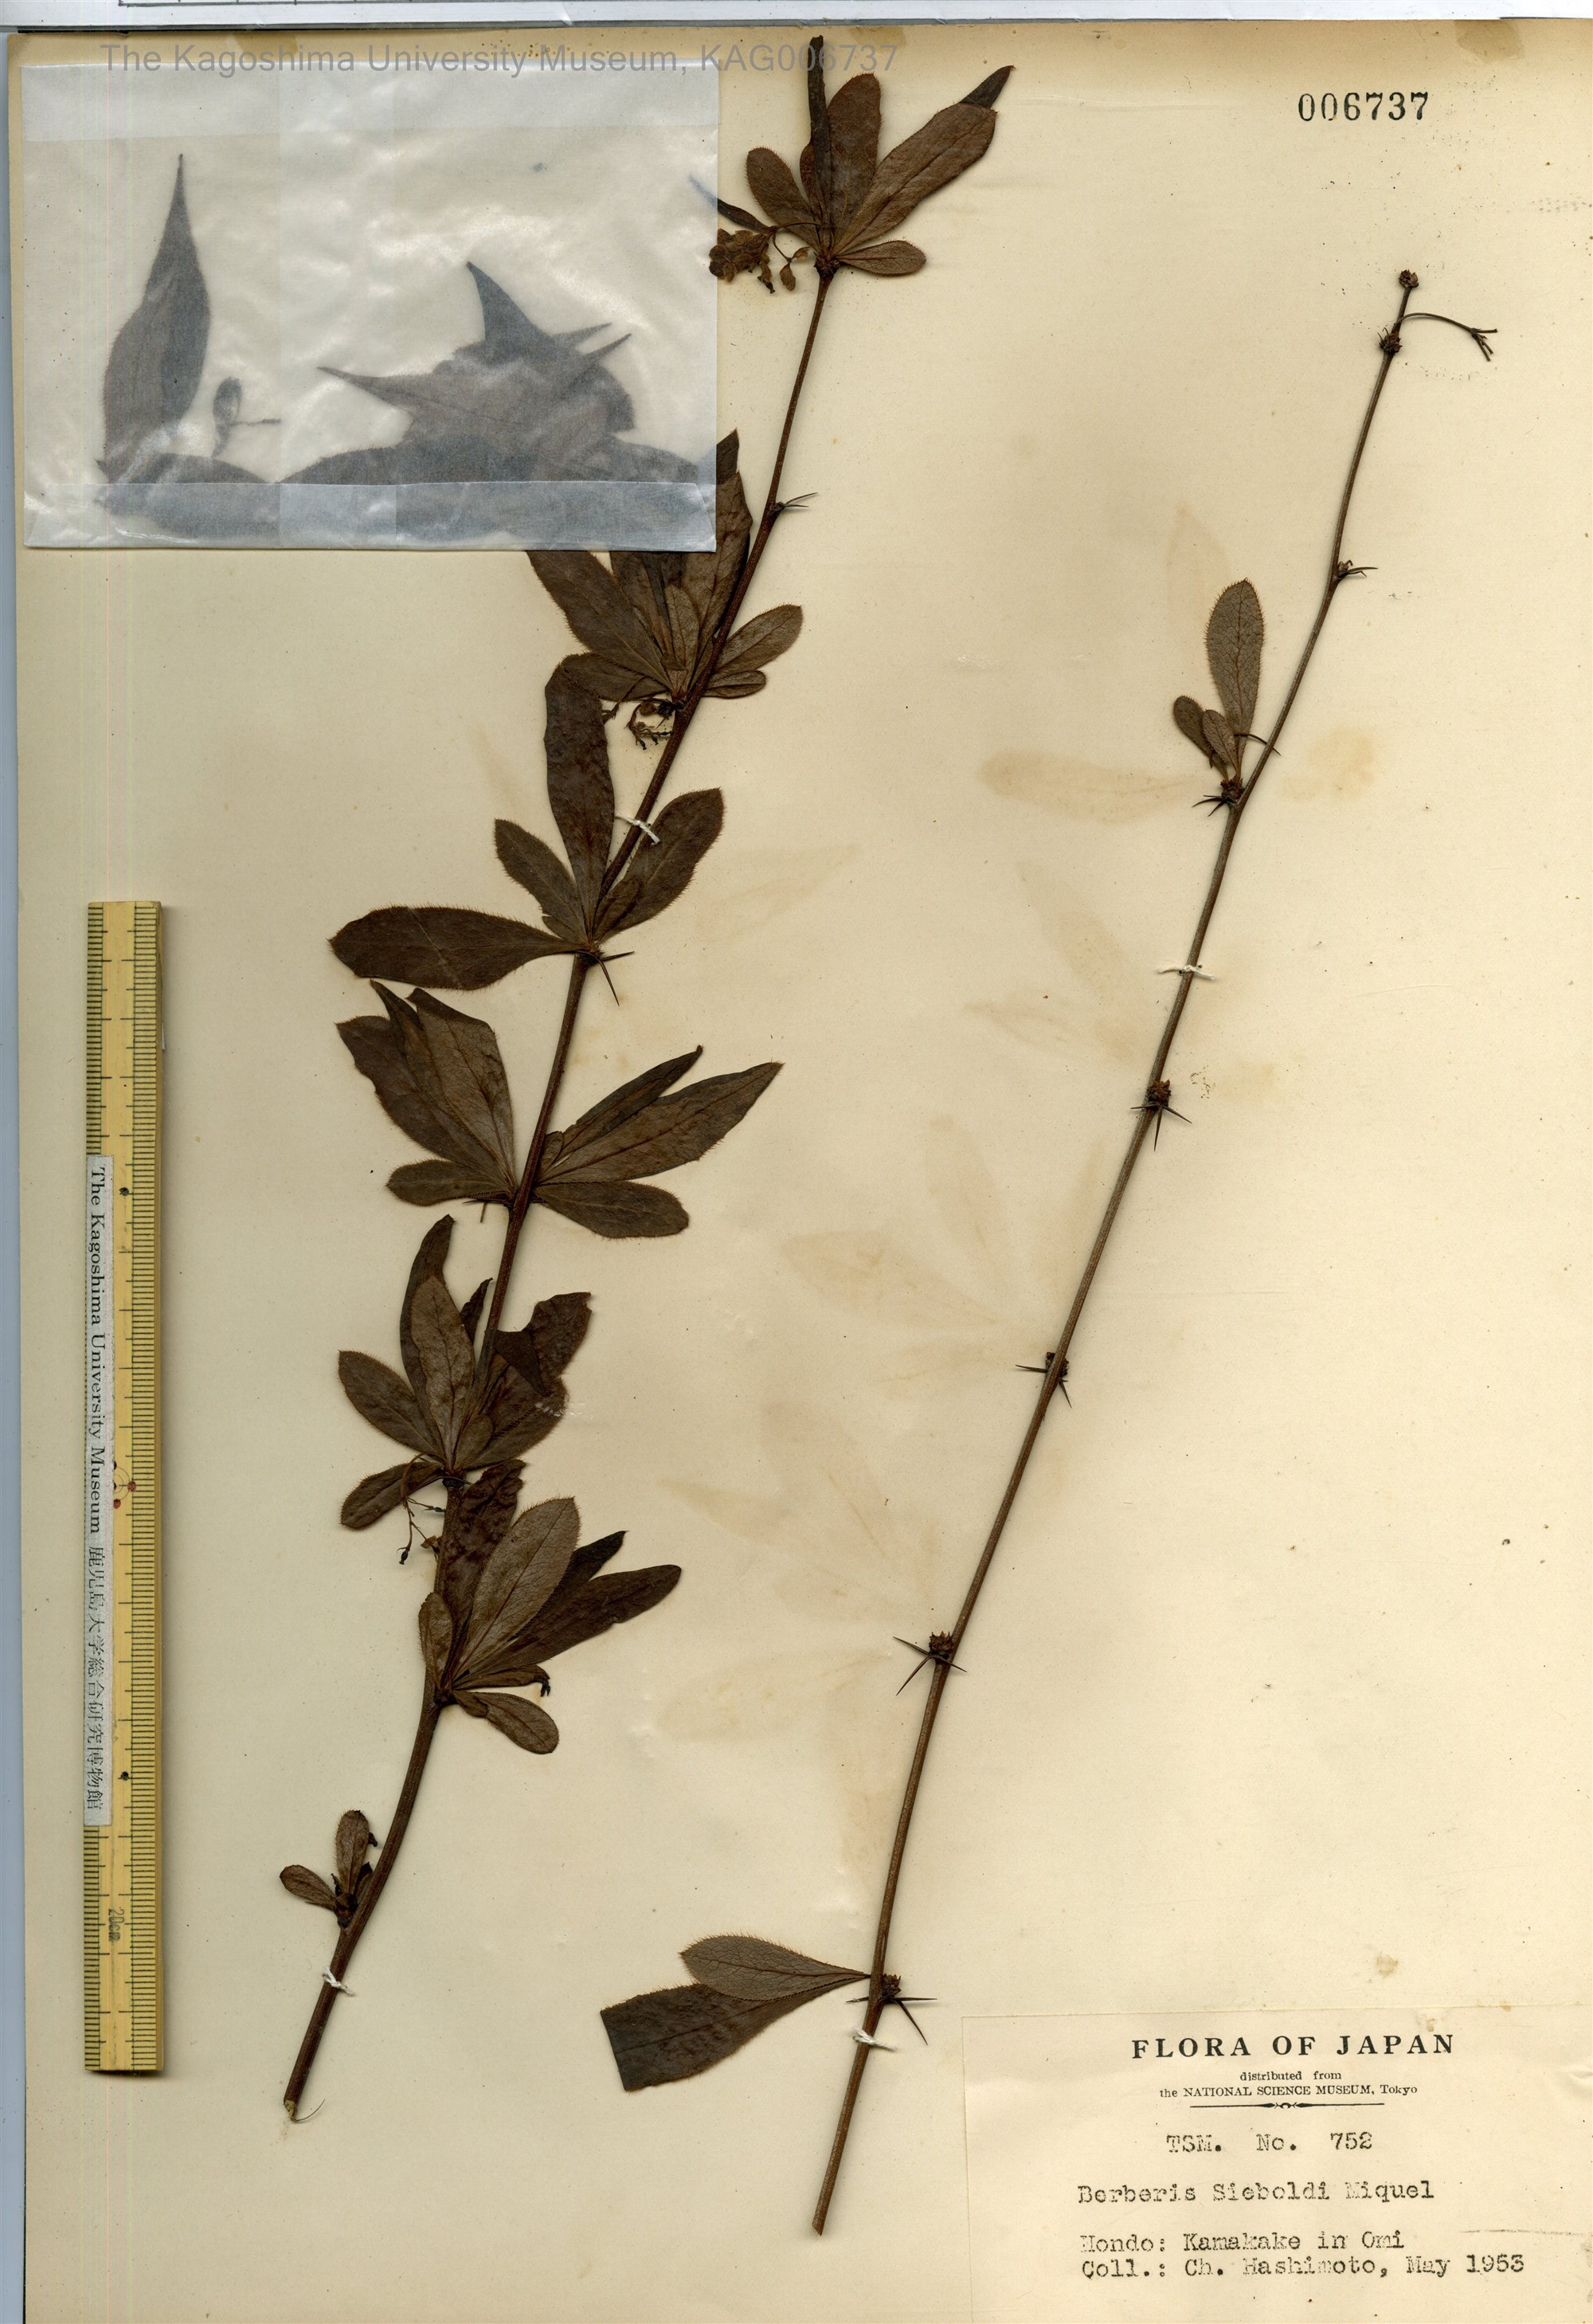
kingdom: Plantae
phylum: Tracheophyta
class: Magnoliopsida
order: Ranunculales
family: Berberidaceae
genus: Berberis
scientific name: Berberis sieboldii
